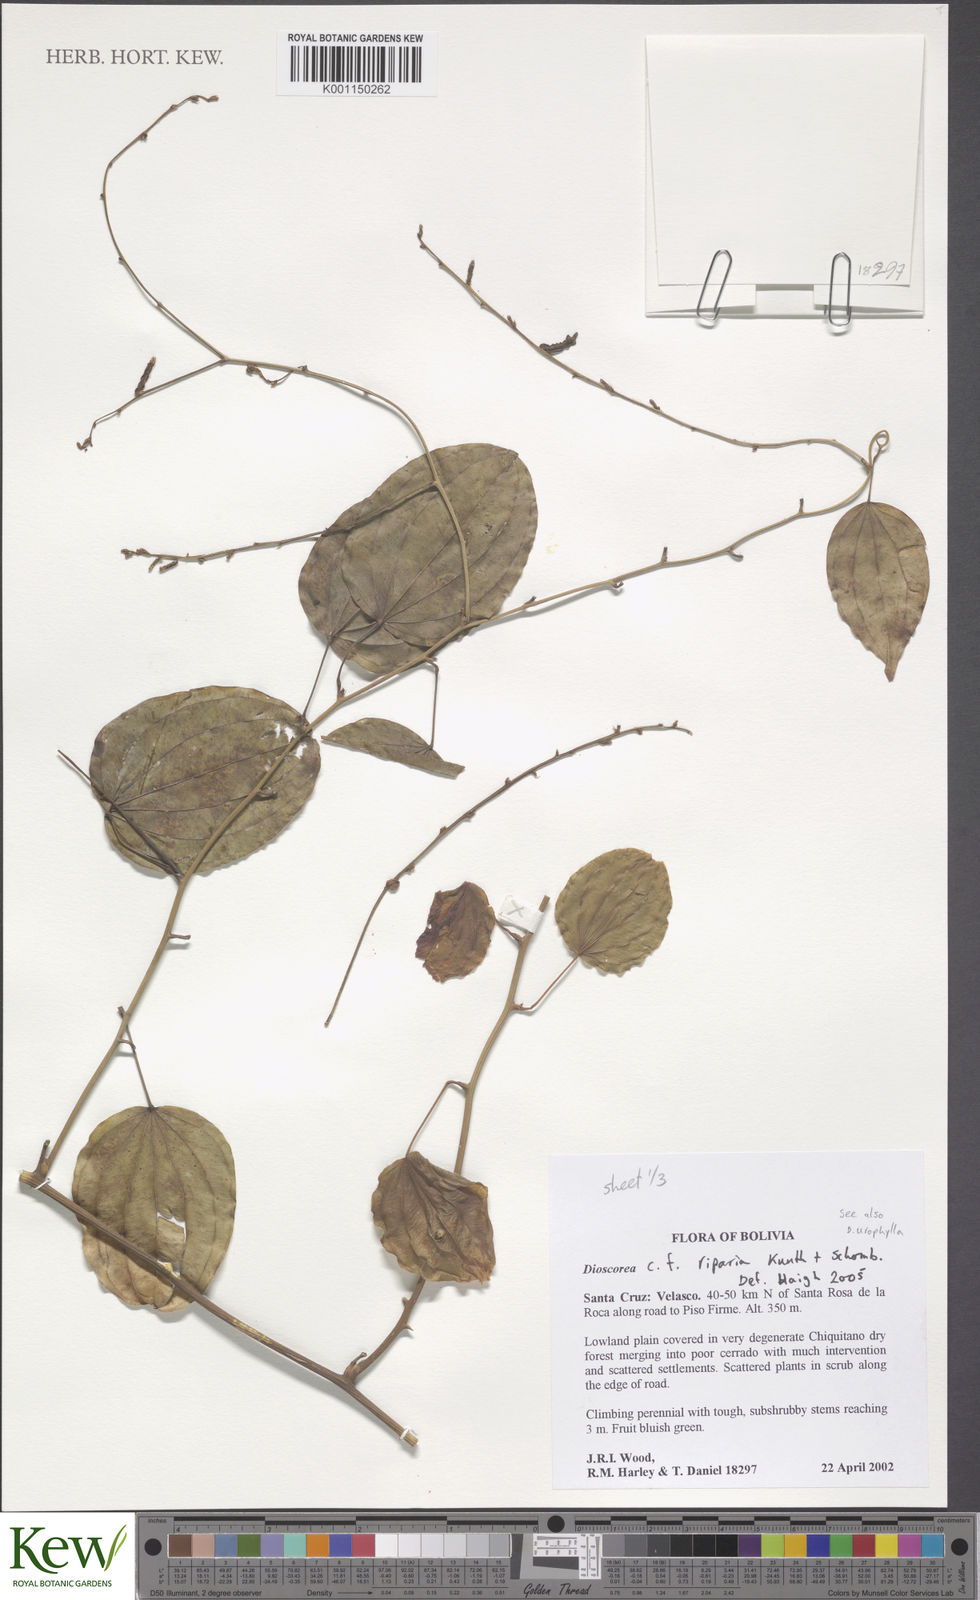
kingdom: Plantae
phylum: Tracheophyta
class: Liliopsida
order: Dioscoreales
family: Dioscoreaceae
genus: Dioscorea
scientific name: Dioscorea acanthogene
